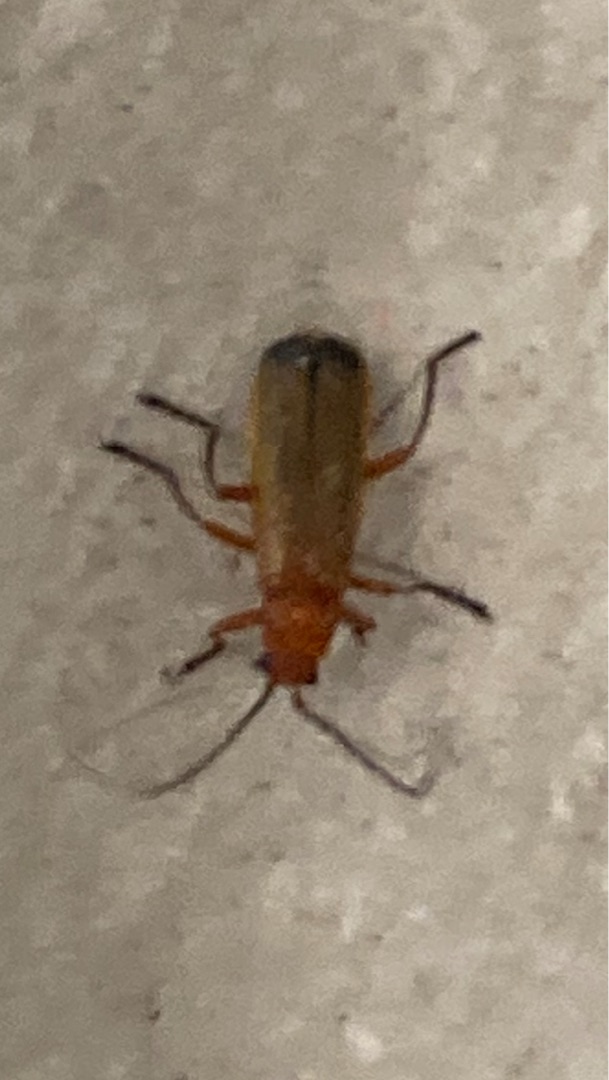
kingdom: Animalia
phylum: Arthropoda
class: Insecta
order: Coleoptera
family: Cantharidae
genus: Rhagonycha
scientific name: Rhagonycha fulva
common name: Præstebille
